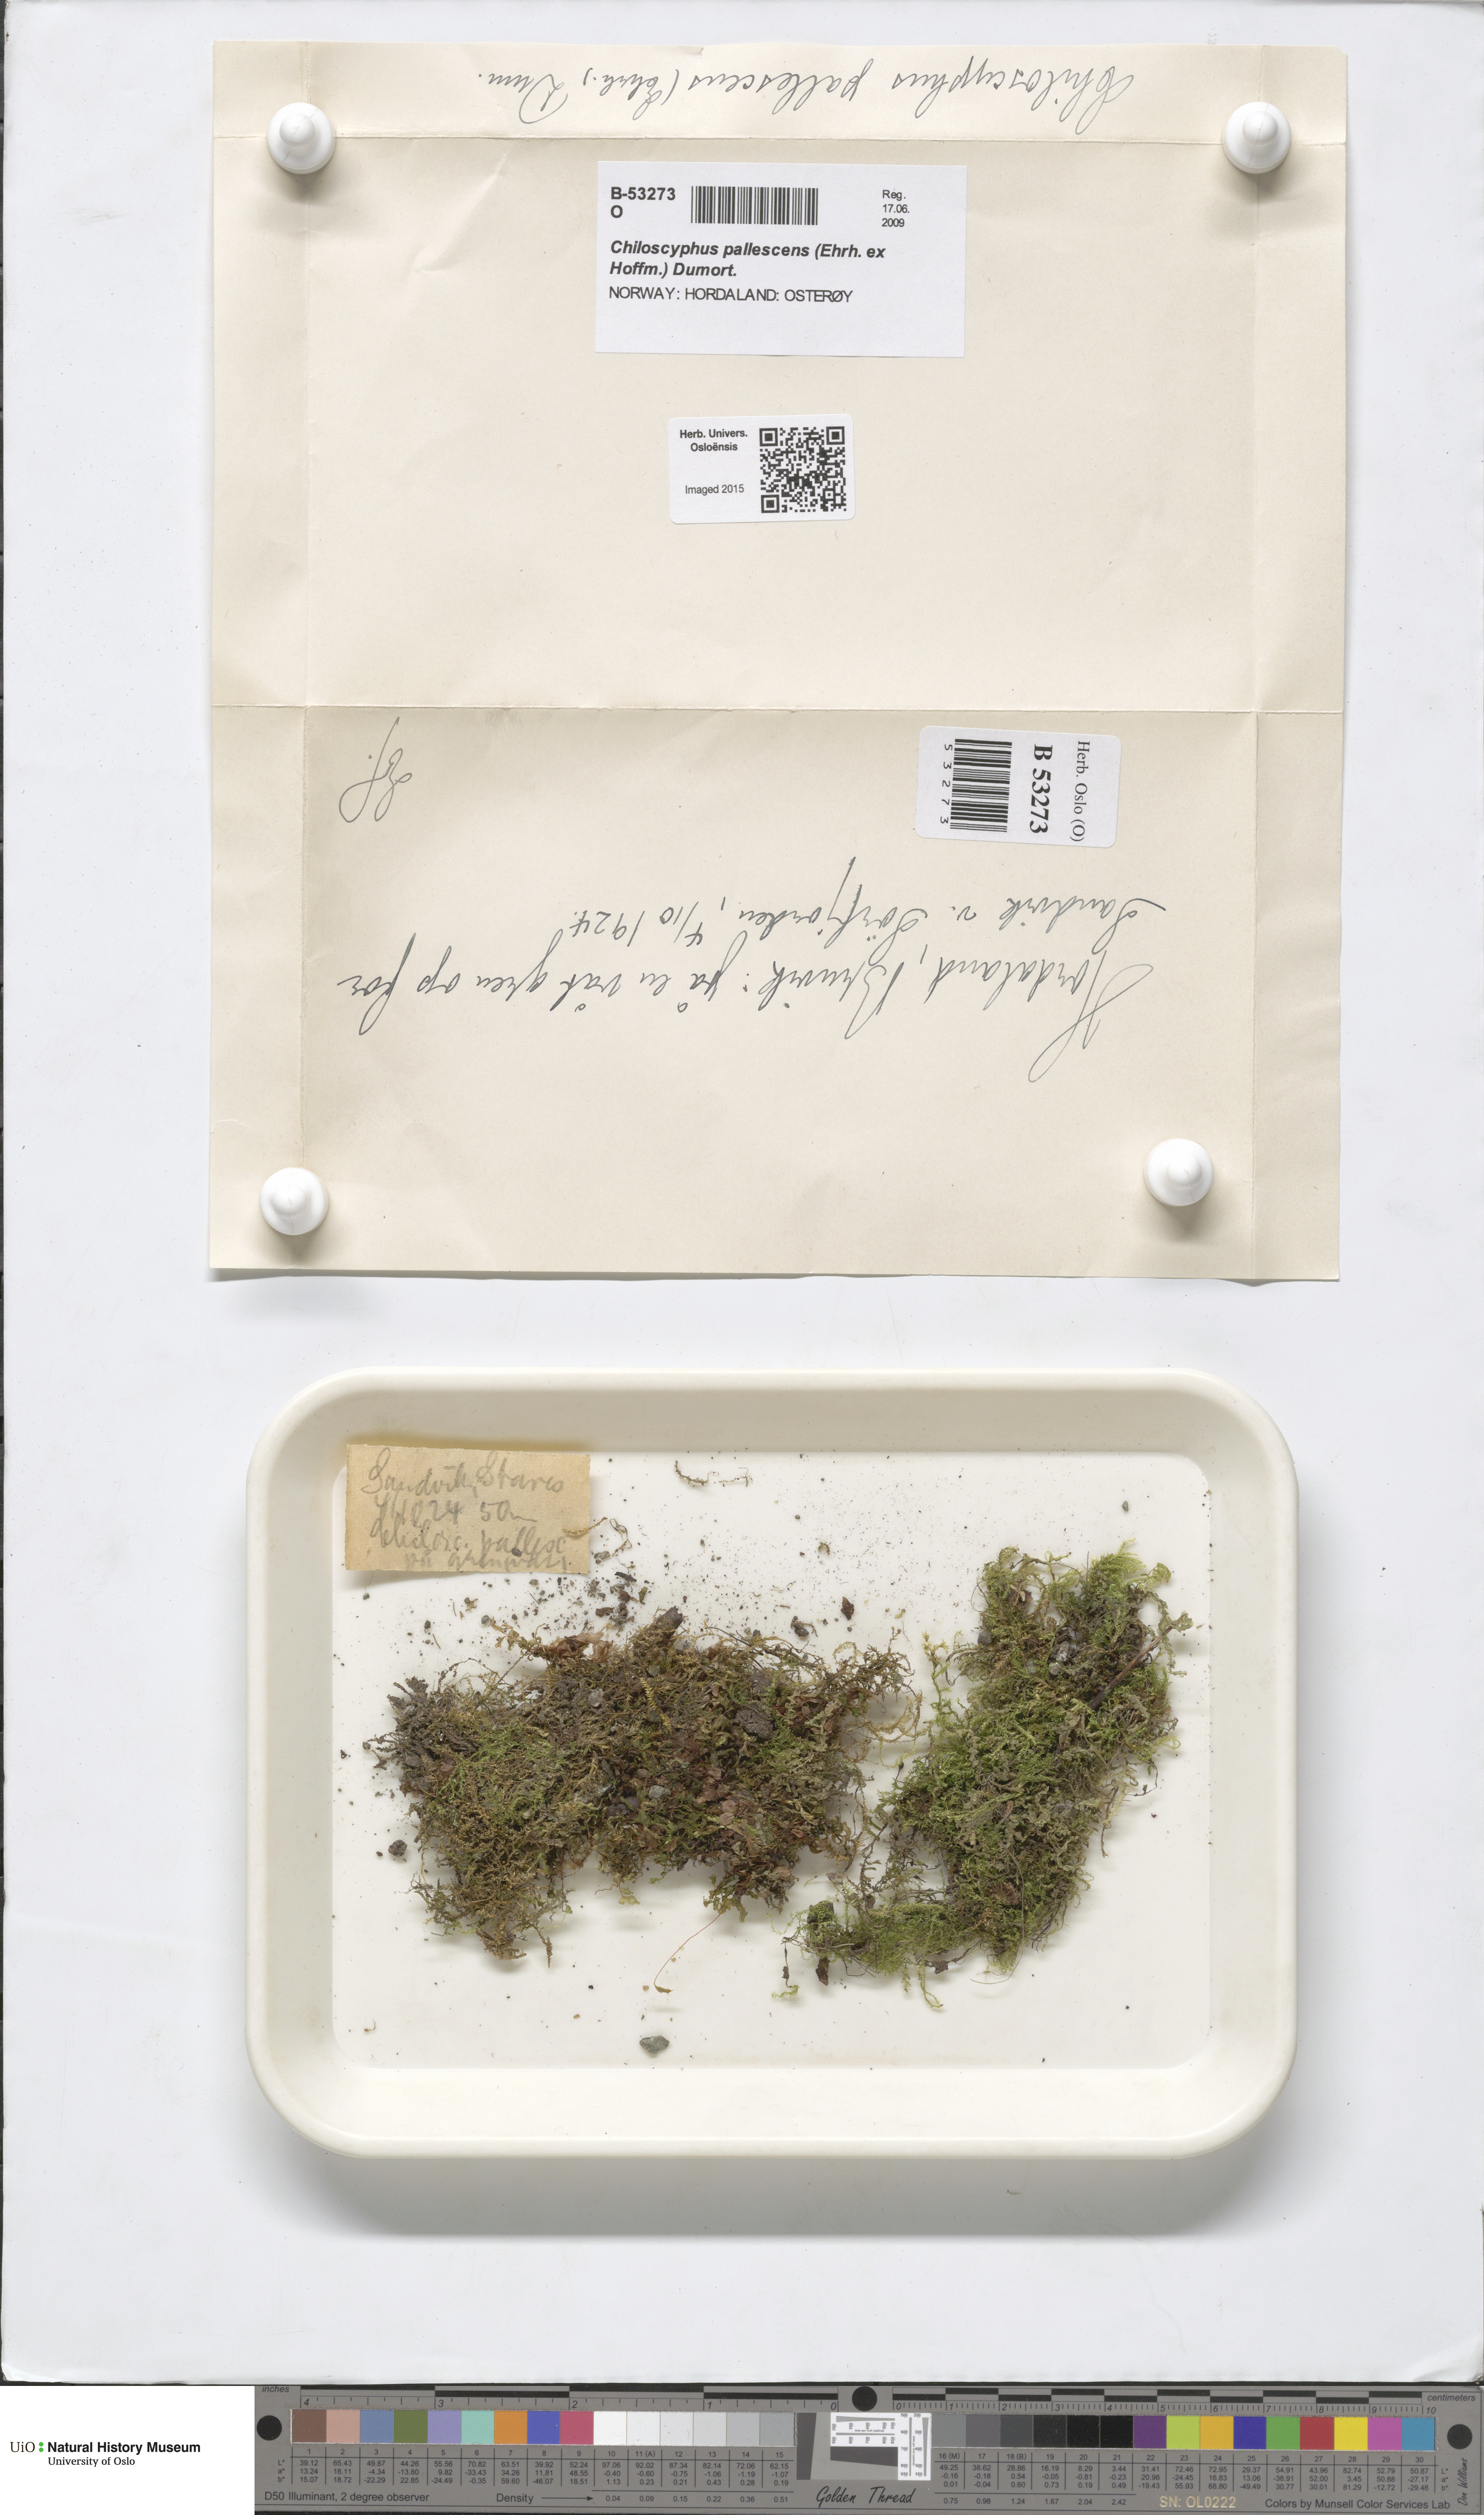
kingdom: Plantae
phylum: Marchantiophyta
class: Jungermanniopsida
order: Jungermanniales
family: Lophocoleaceae
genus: Chiloscyphus
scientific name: Chiloscyphus pallescens
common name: St winifrid's other moss
